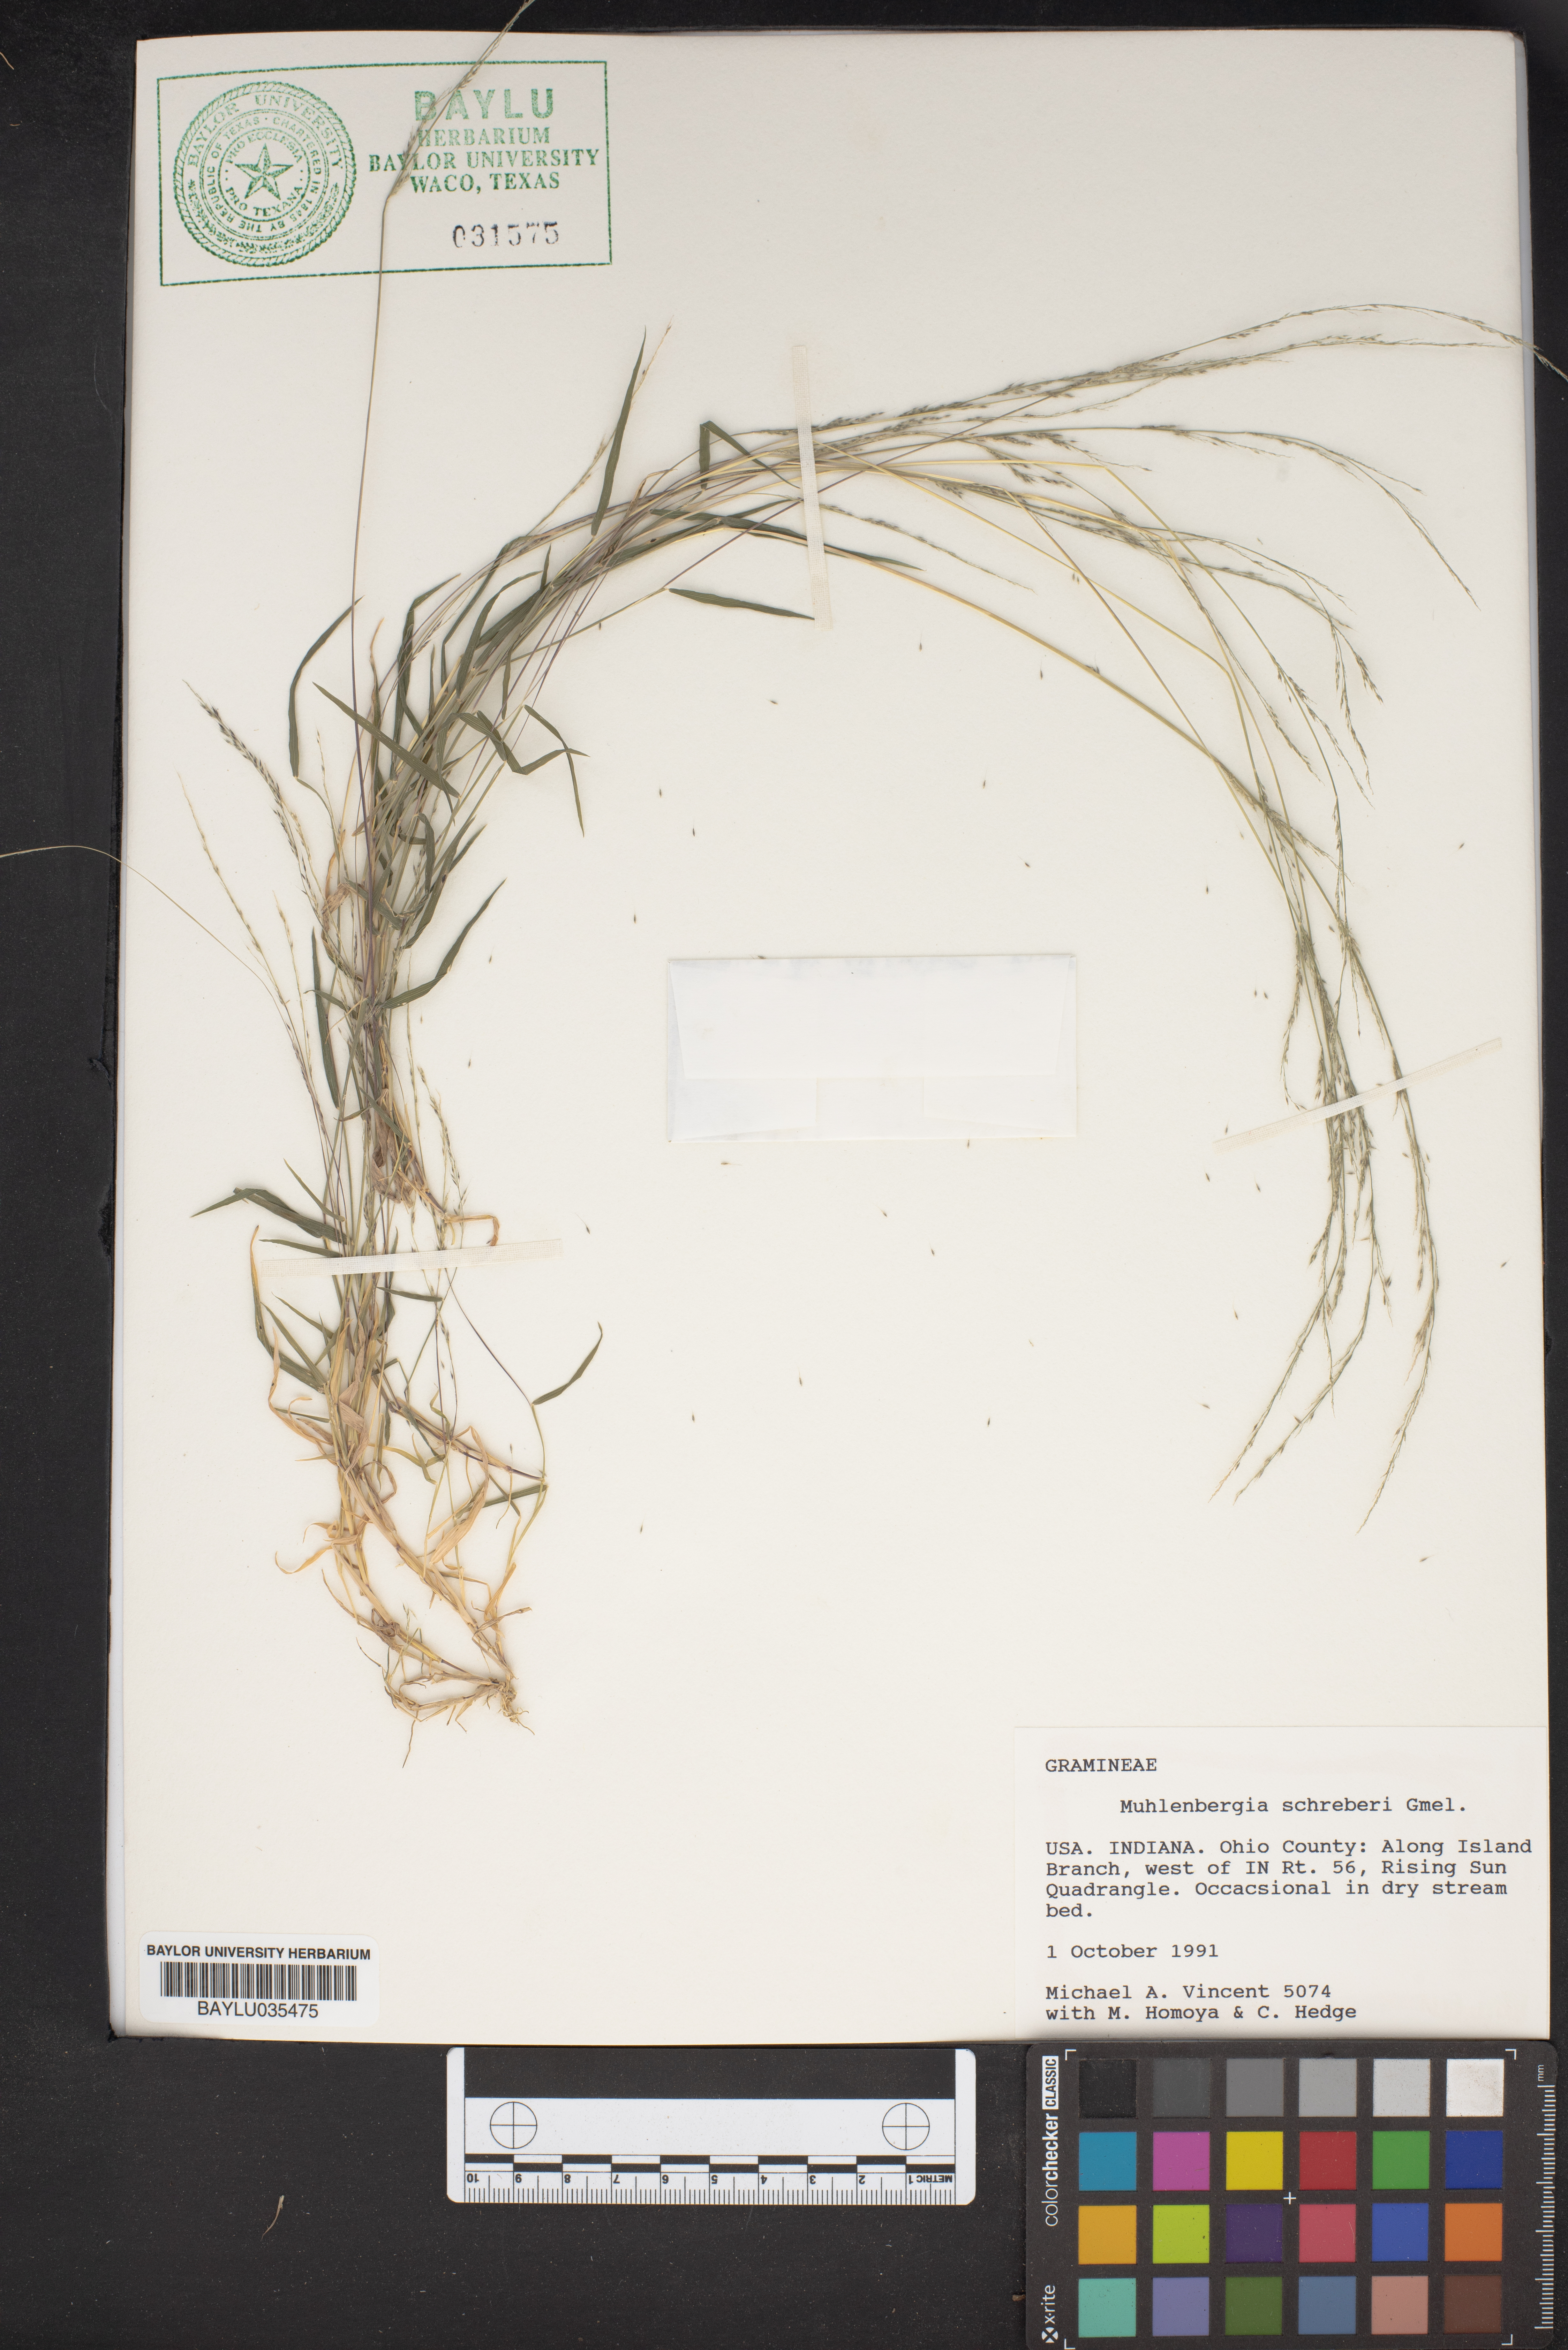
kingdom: Plantae
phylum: Tracheophyta
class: Liliopsida
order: Poales
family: Poaceae
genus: Muhlenbergia
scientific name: Muhlenbergia schreberi
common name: Nimblewill
